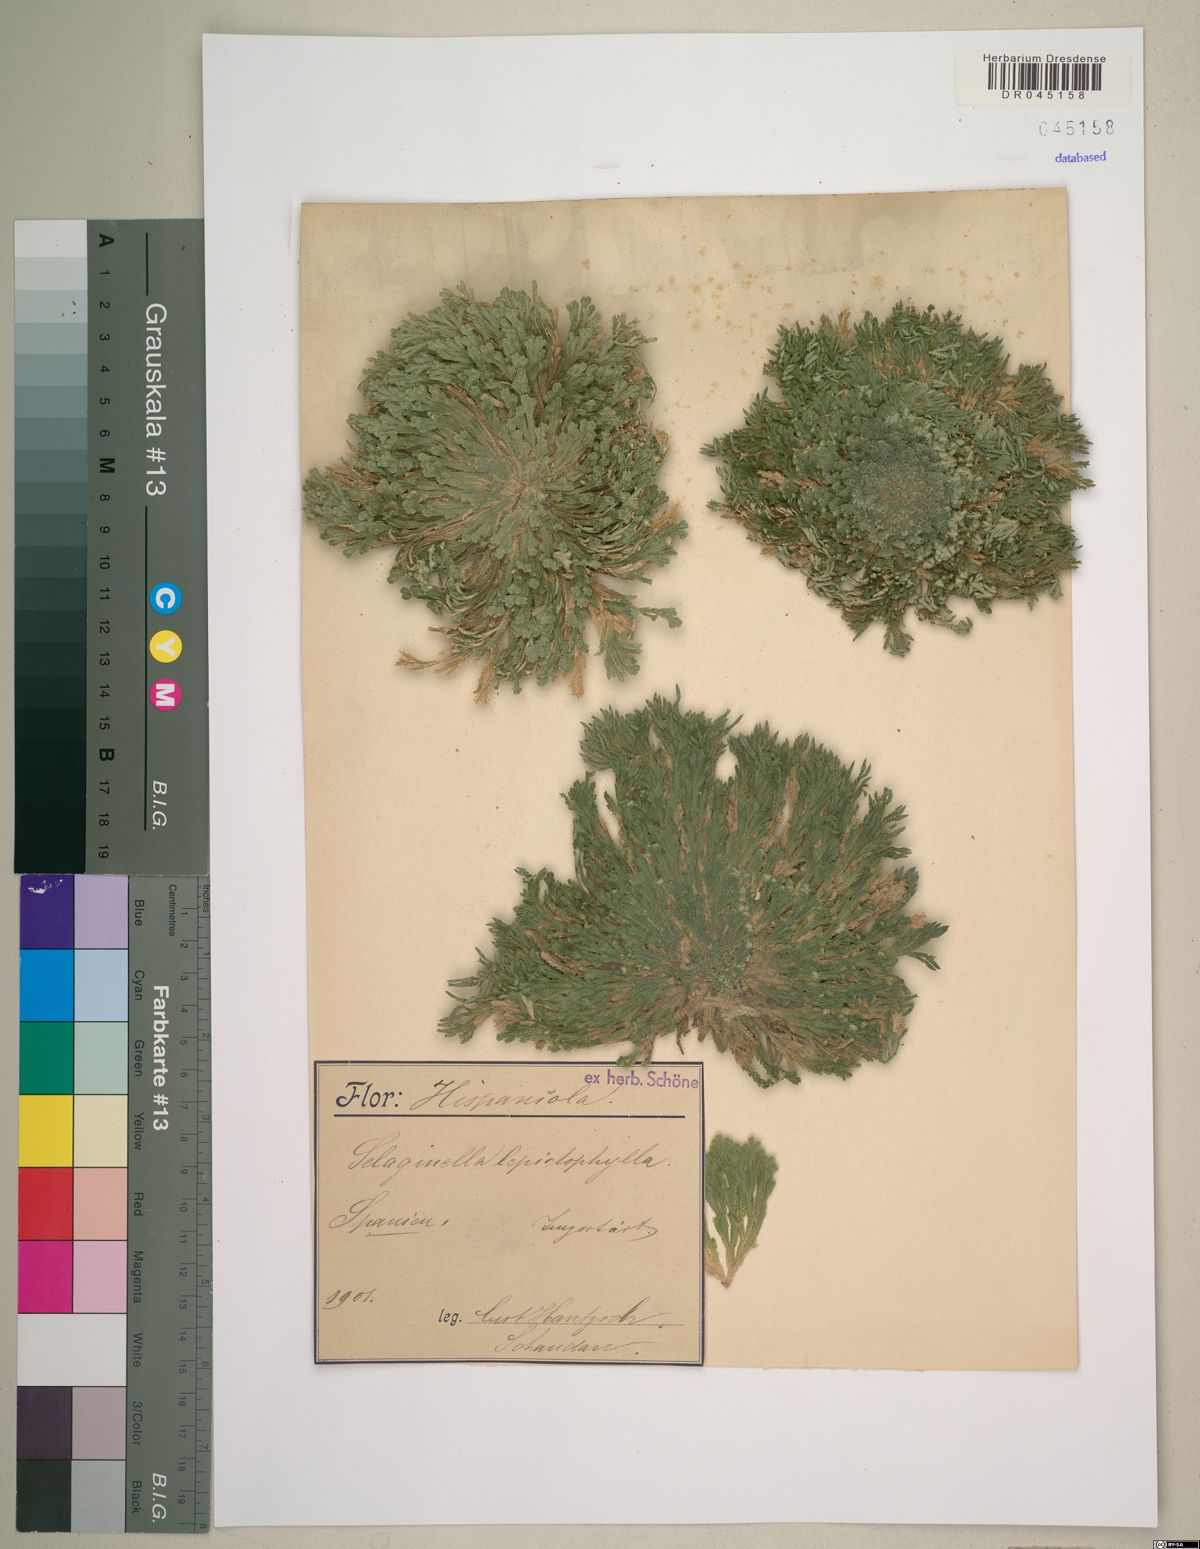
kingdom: Plantae
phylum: Tracheophyta
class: Lycopodiopsida
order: Selaginellales
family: Selaginellaceae
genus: Selaginella
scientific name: Selaginella lepidophylla
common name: Rose-of-jericho
